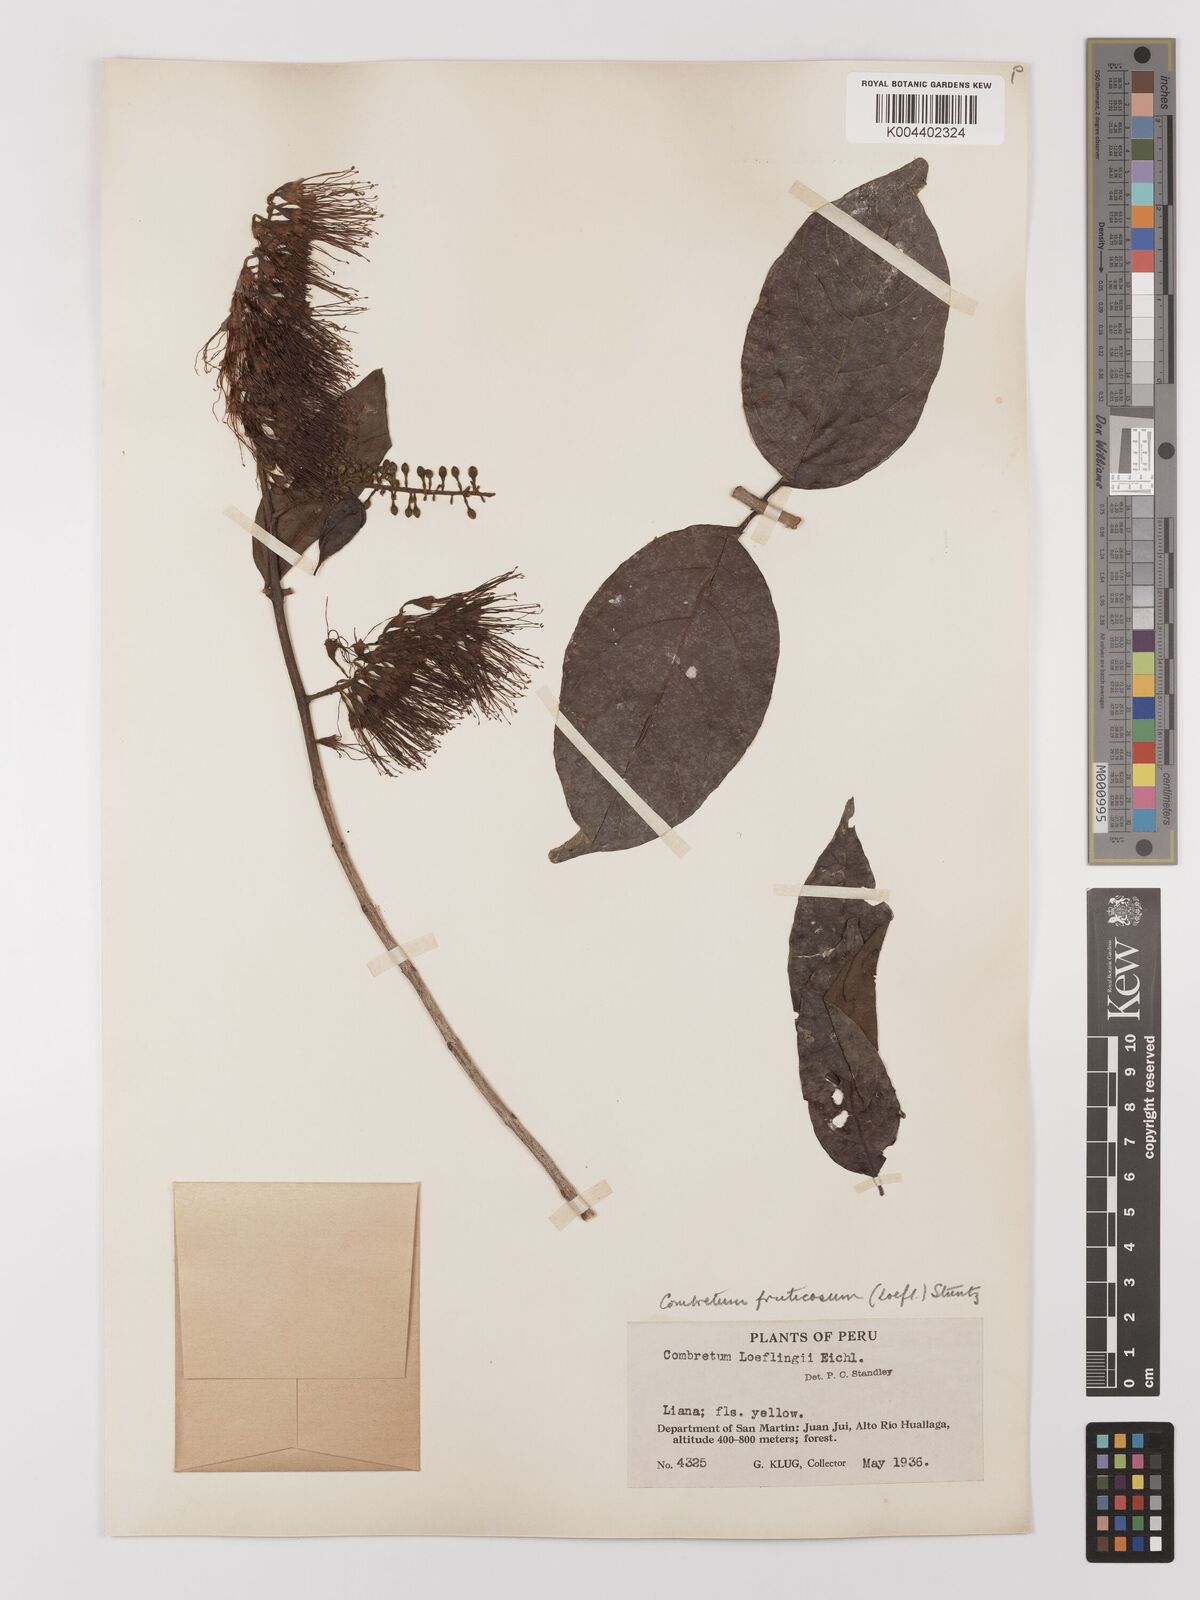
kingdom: Plantae
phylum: Tracheophyta
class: Magnoliopsida
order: Myrtales
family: Combretaceae
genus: Combretum
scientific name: Combretum fruticosum
